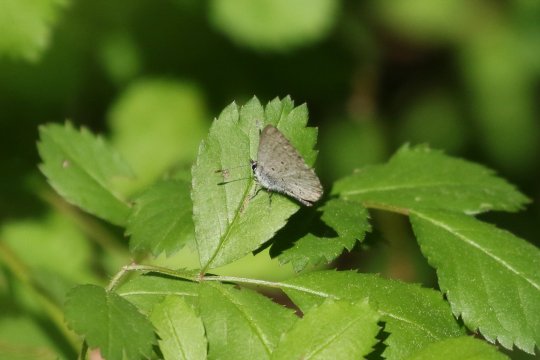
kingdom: Animalia
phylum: Arthropoda
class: Insecta
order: Lepidoptera
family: Lycaenidae
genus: Celastrina
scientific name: Celastrina
